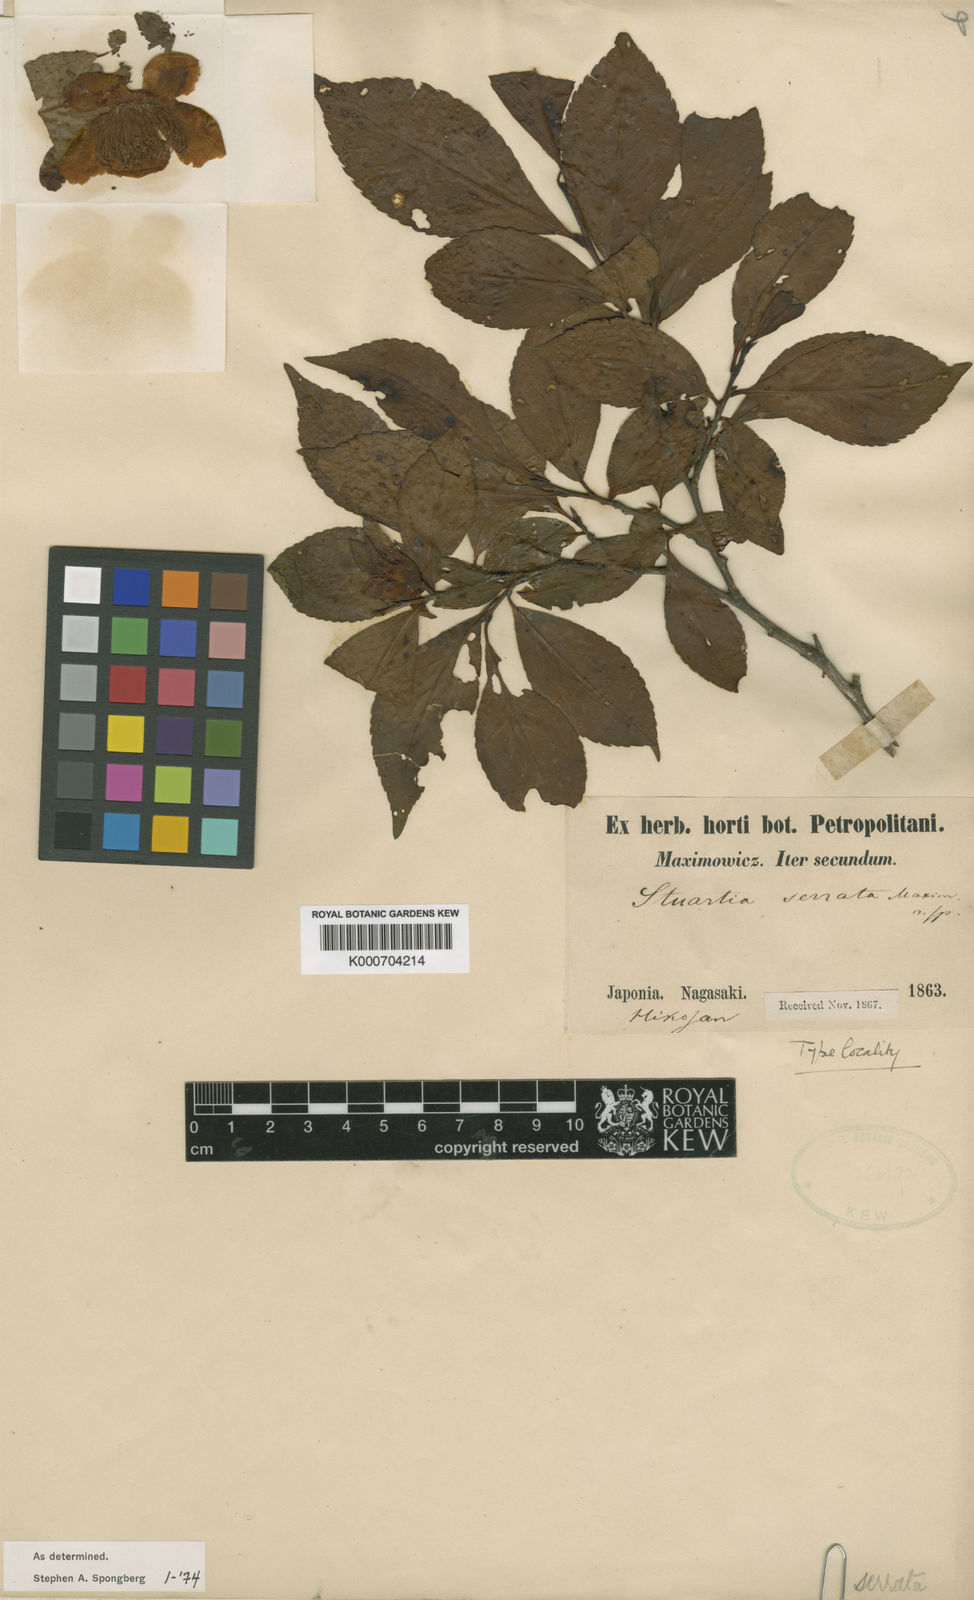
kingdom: Plantae
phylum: Tracheophyta
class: Magnoliopsida
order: Ericales
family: Theaceae
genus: Stewartia
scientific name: Stewartia serrata
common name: Sawtooth stewartia
